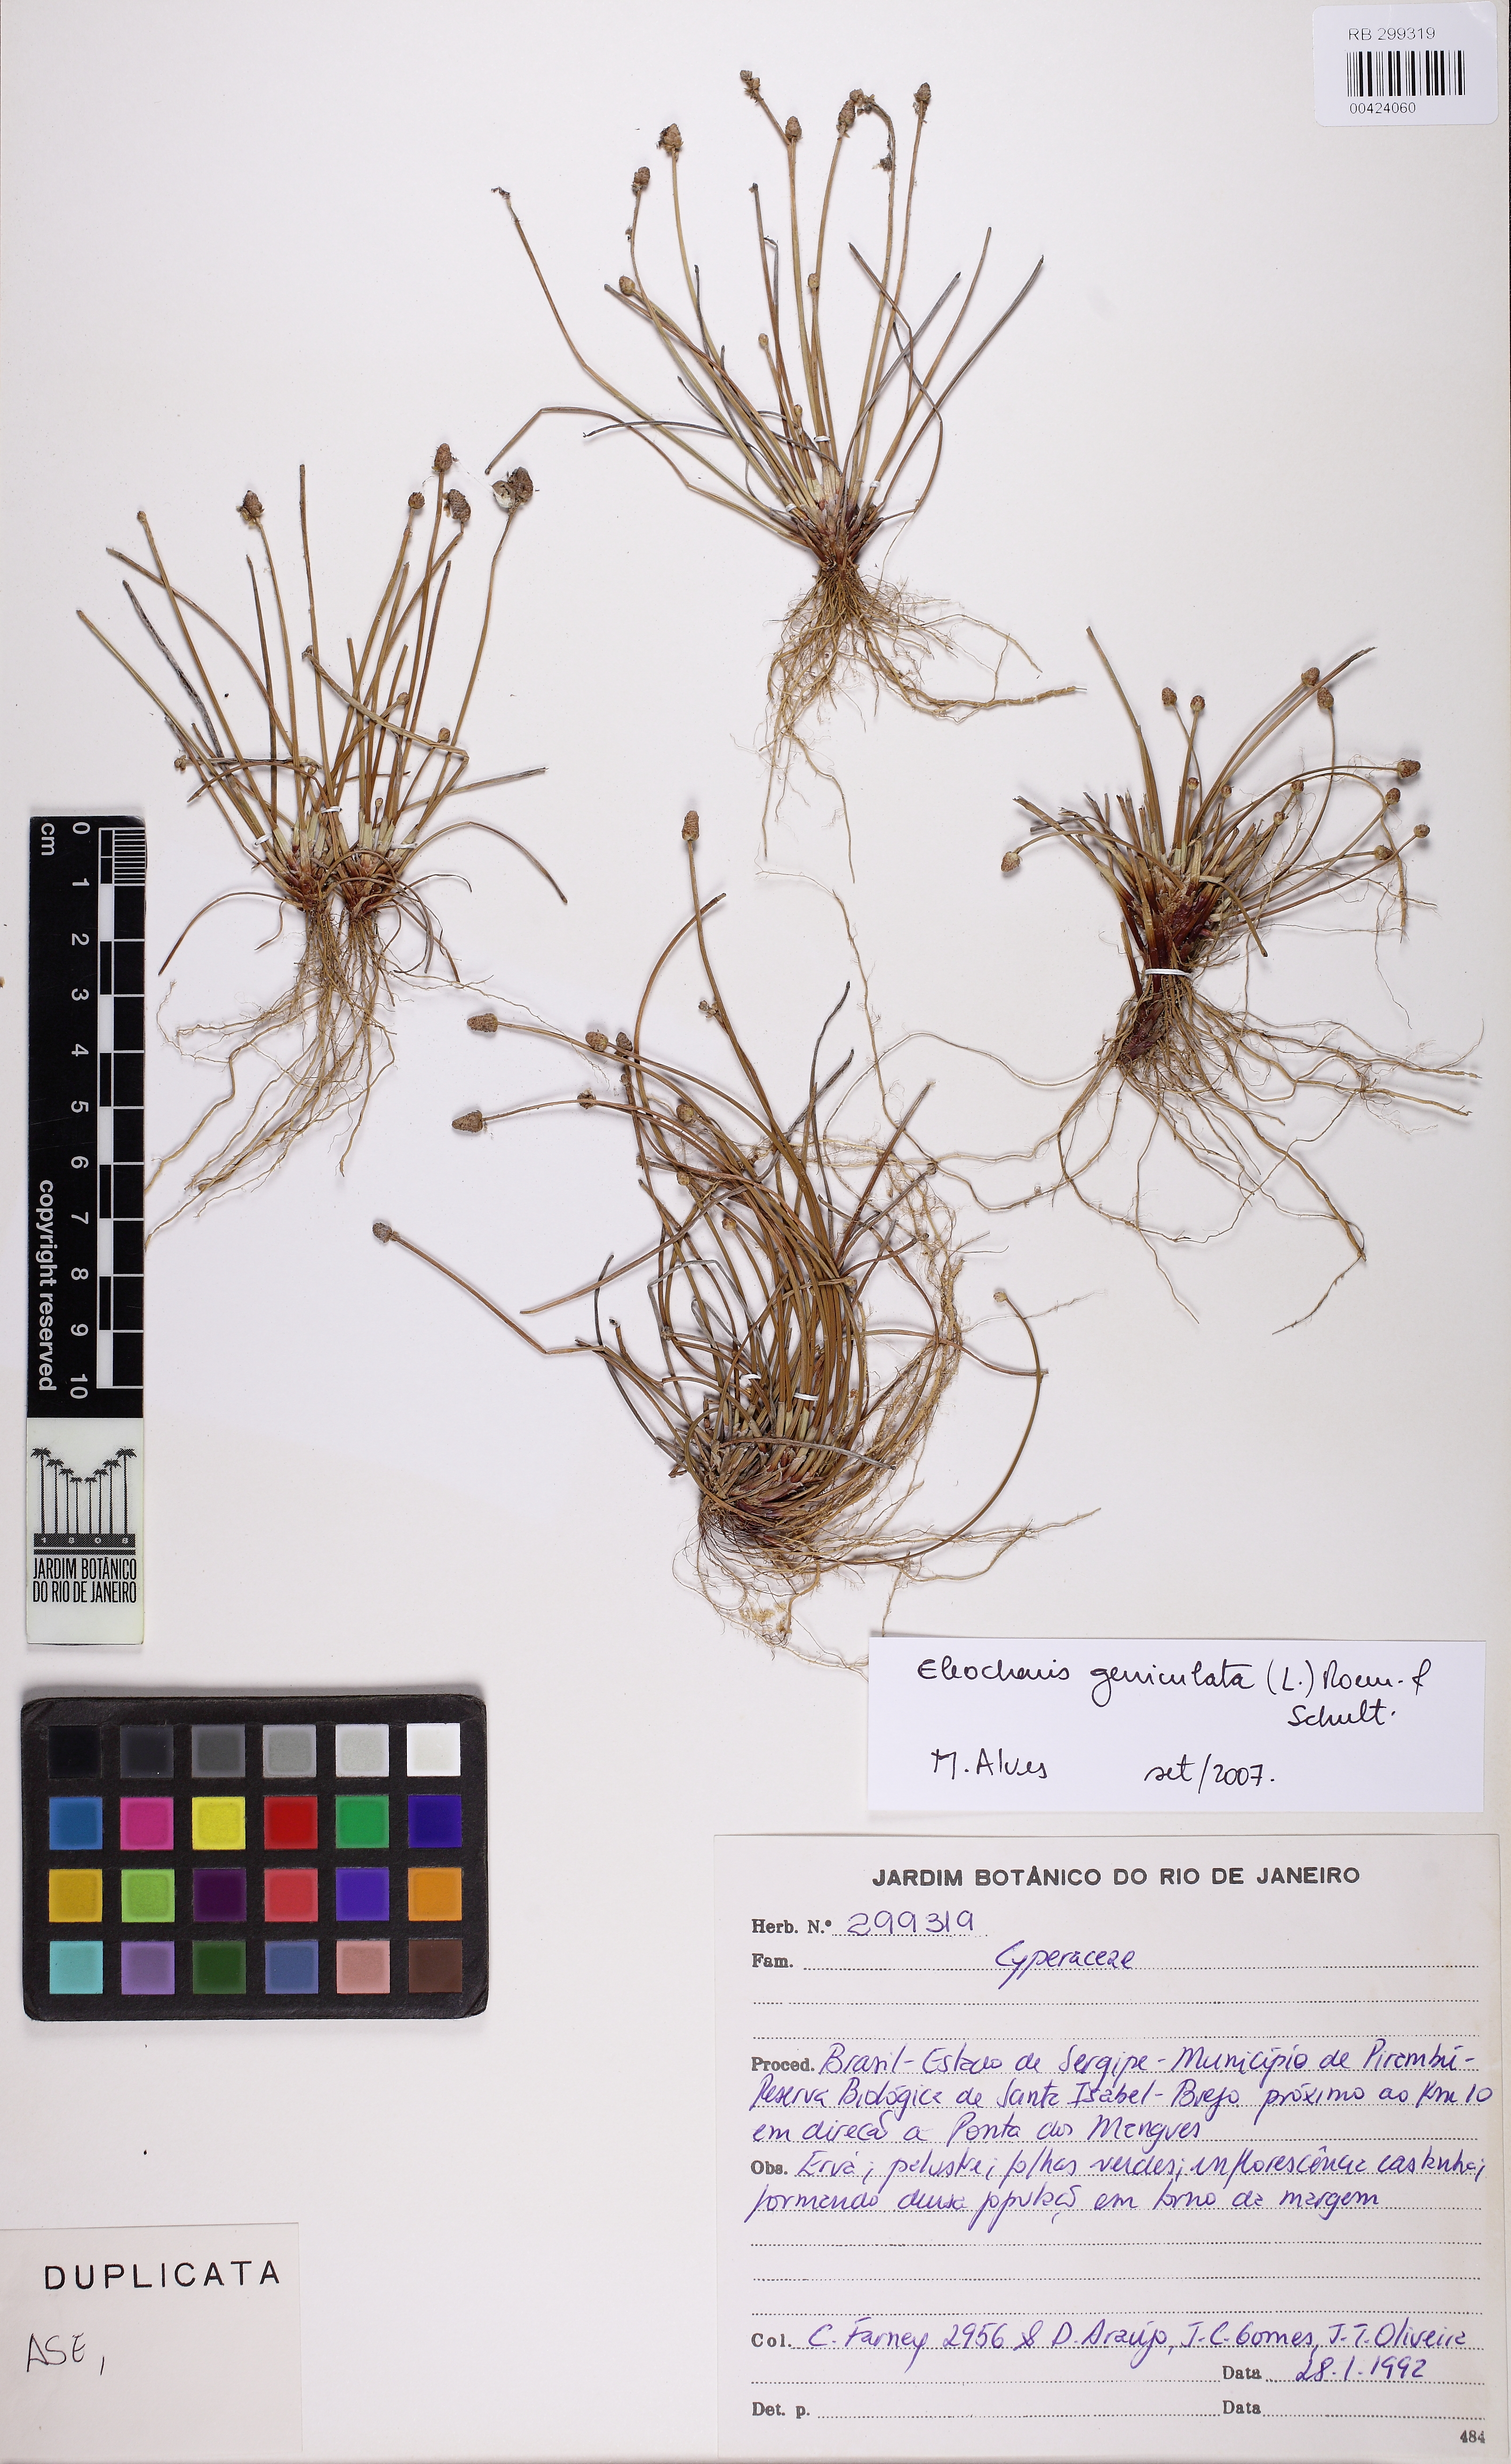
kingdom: Plantae
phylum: Tracheophyta
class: Liliopsida
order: Poales
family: Cyperaceae
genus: Eleocharis
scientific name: Eleocharis geniculata
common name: Canada spikesedge
